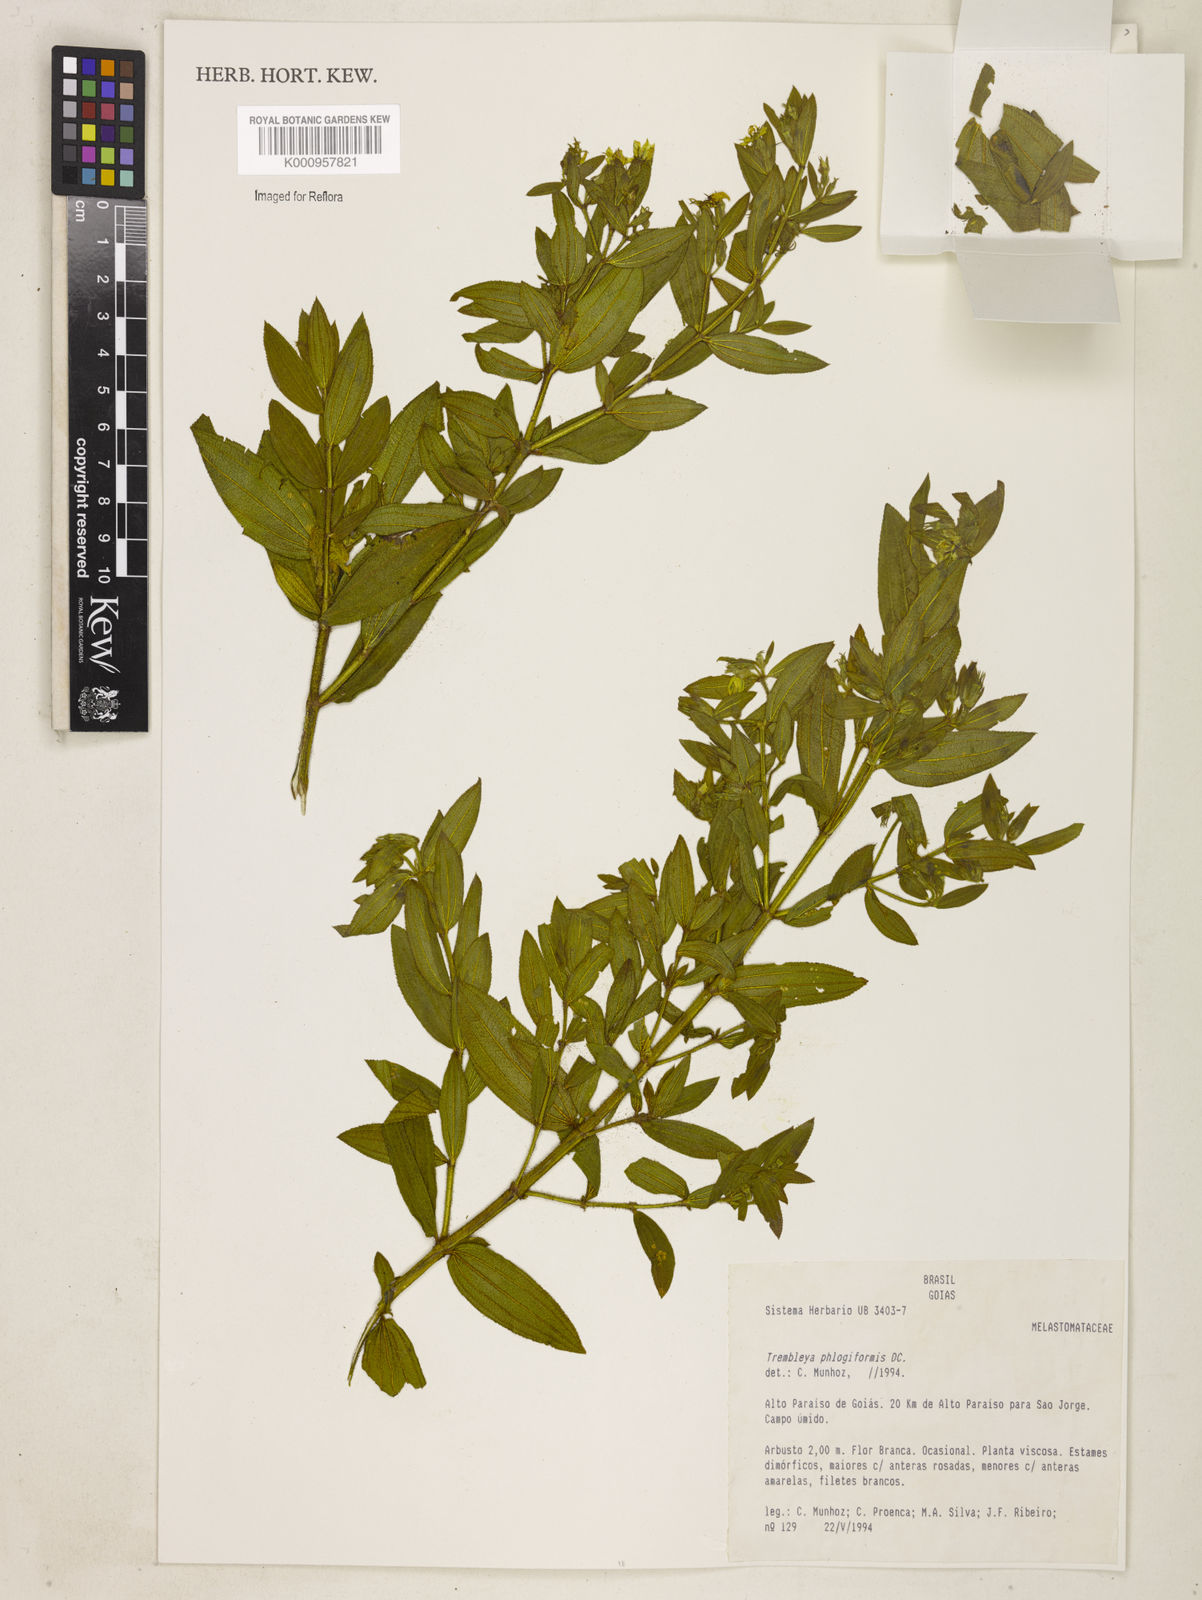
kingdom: Plantae
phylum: Tracheophyta
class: Magnoliopsida
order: Myrtales
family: Melastomataceae
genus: Microlicia
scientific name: Microlicia phlogiformis
